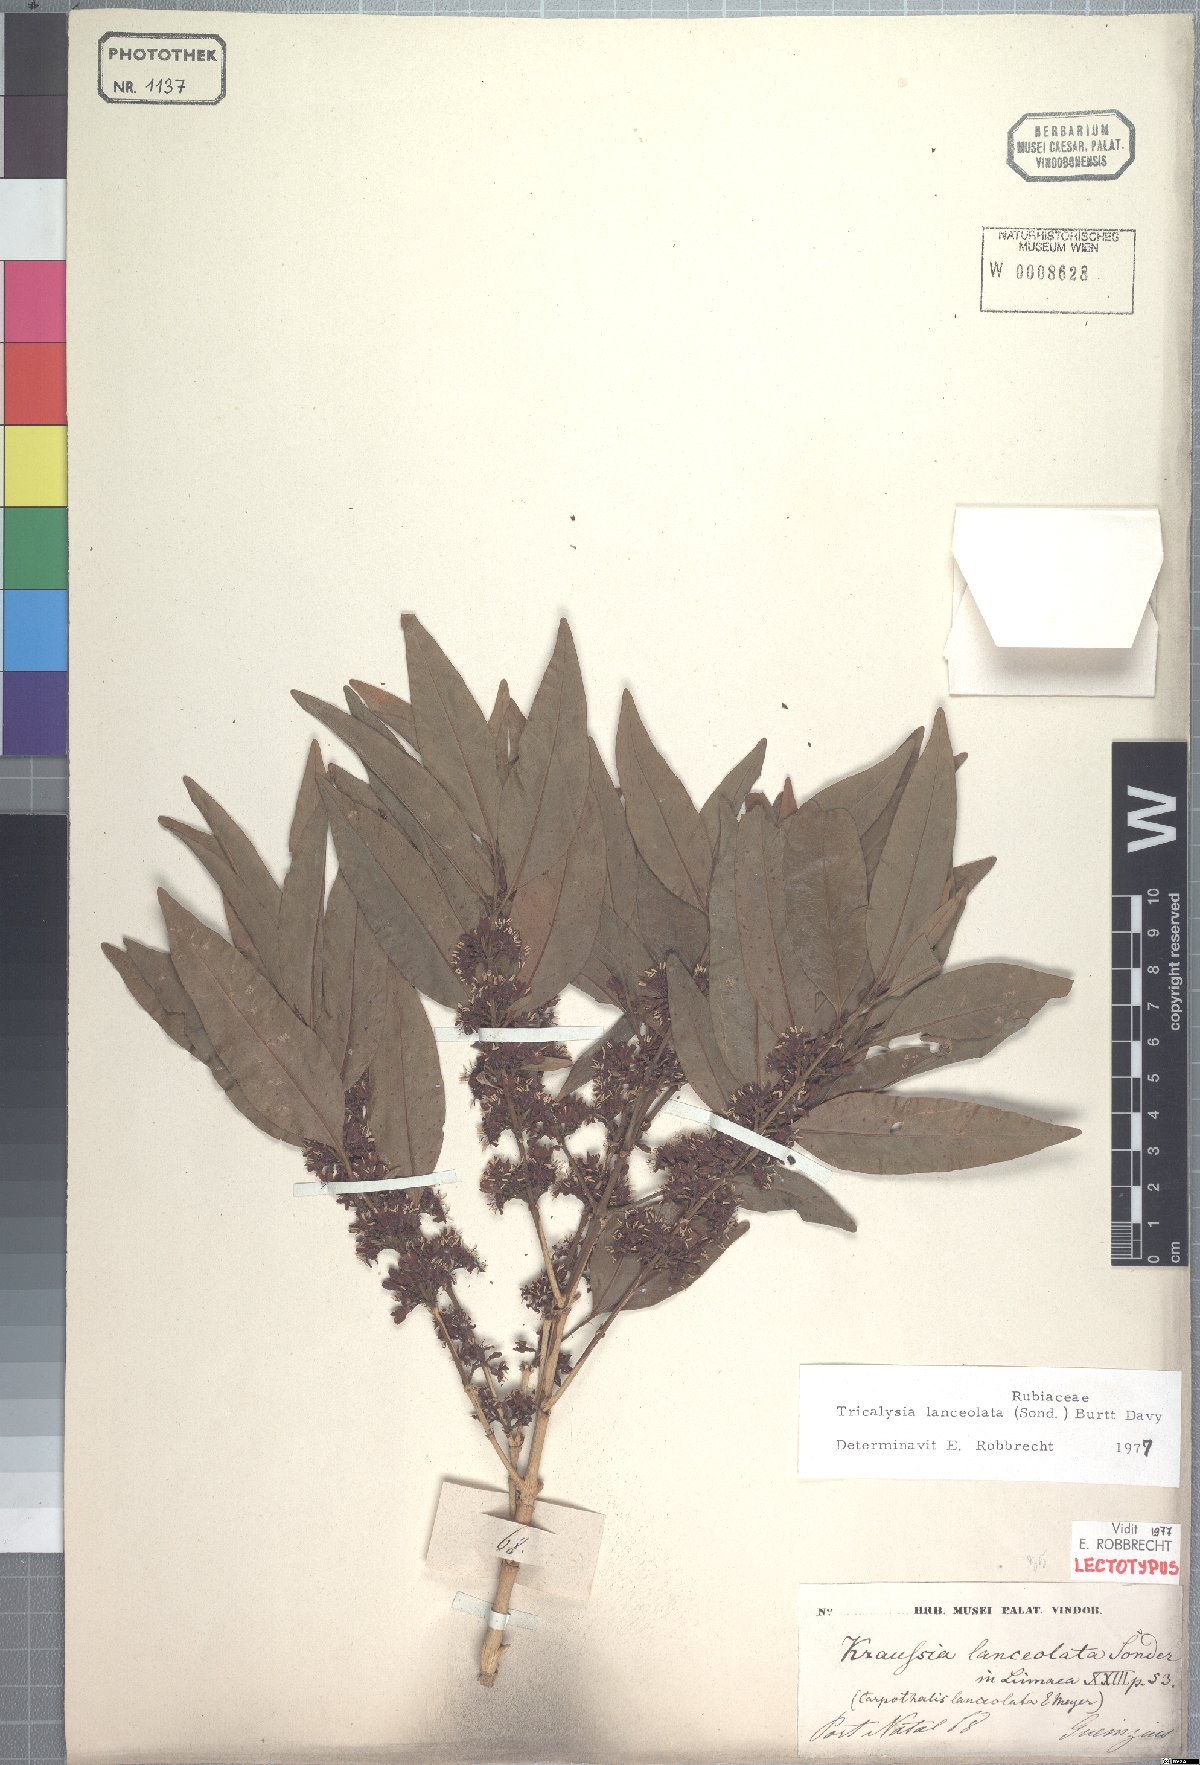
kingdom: Plantae
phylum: Tracheophyta
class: Magnoliopsida
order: Gentianales
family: Rubiaceae
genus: Empogona
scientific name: Empogona lanceolata
